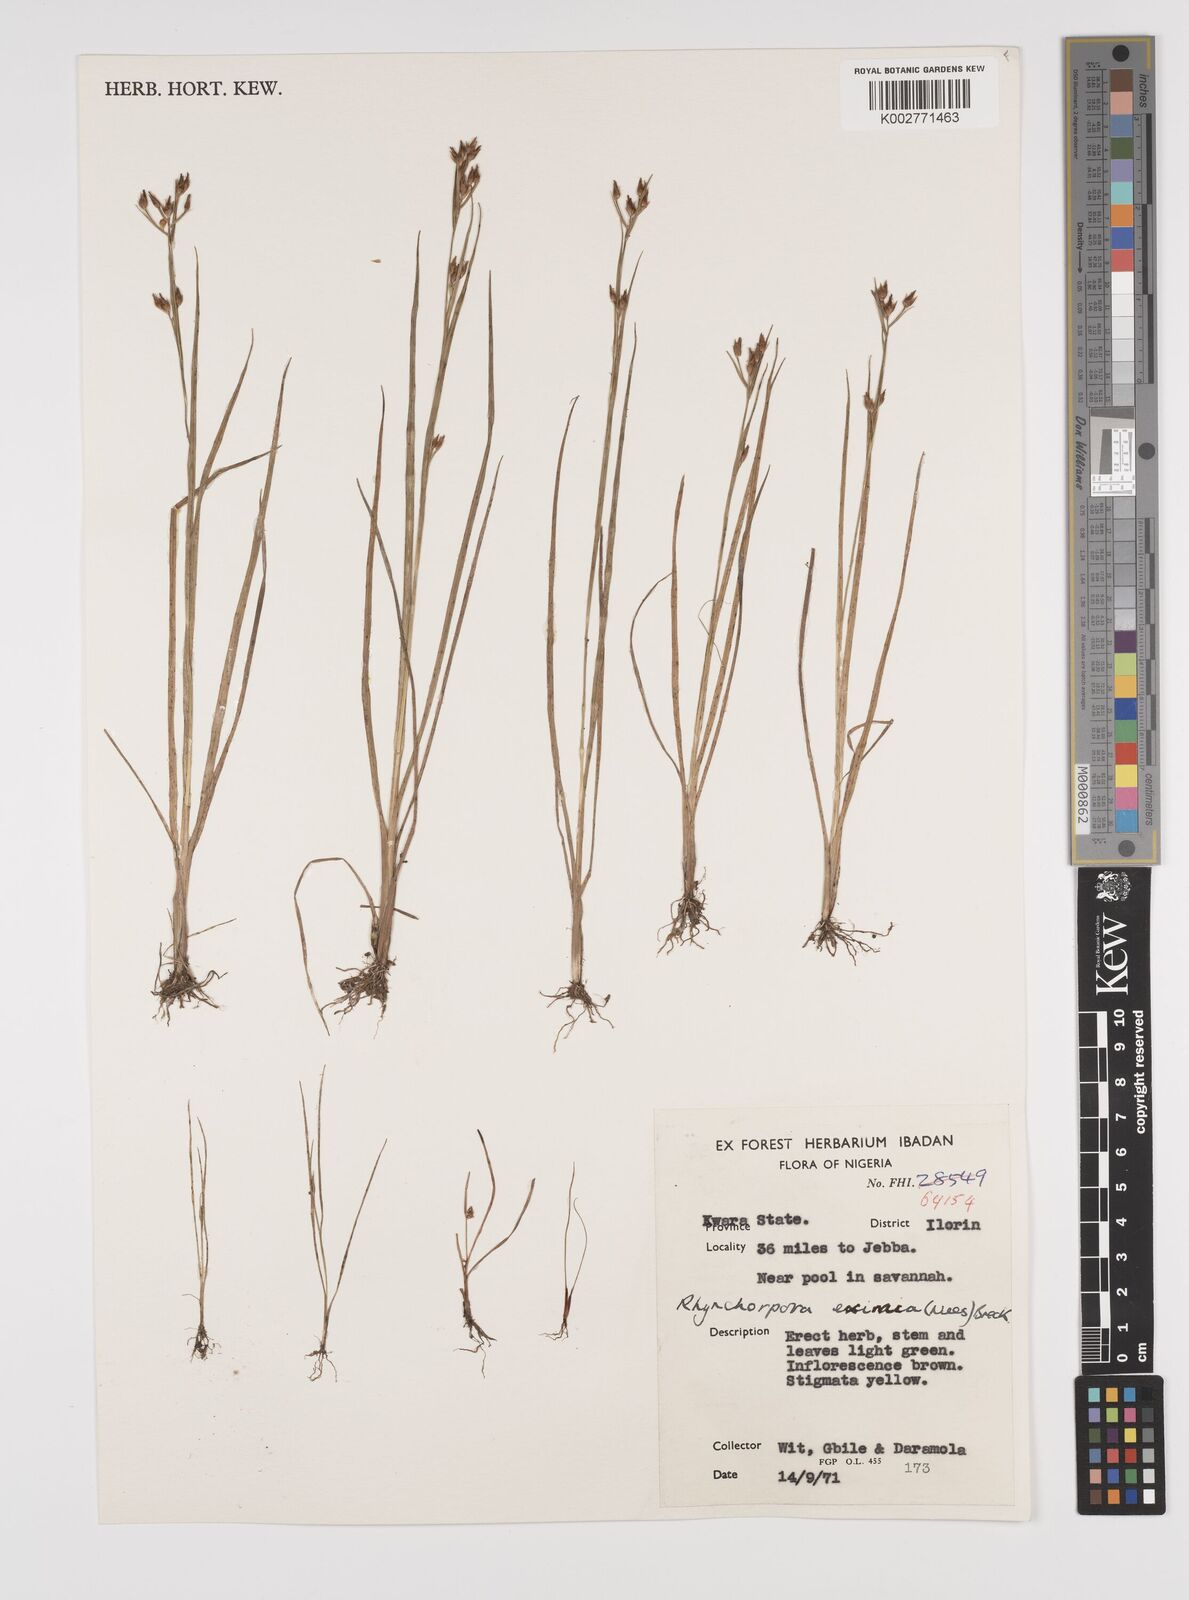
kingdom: Plantae
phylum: Tracheophyta
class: Liliopsida
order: Poales
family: Cyperaceae
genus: Rhynchospora
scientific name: Rhynchospora eximia
